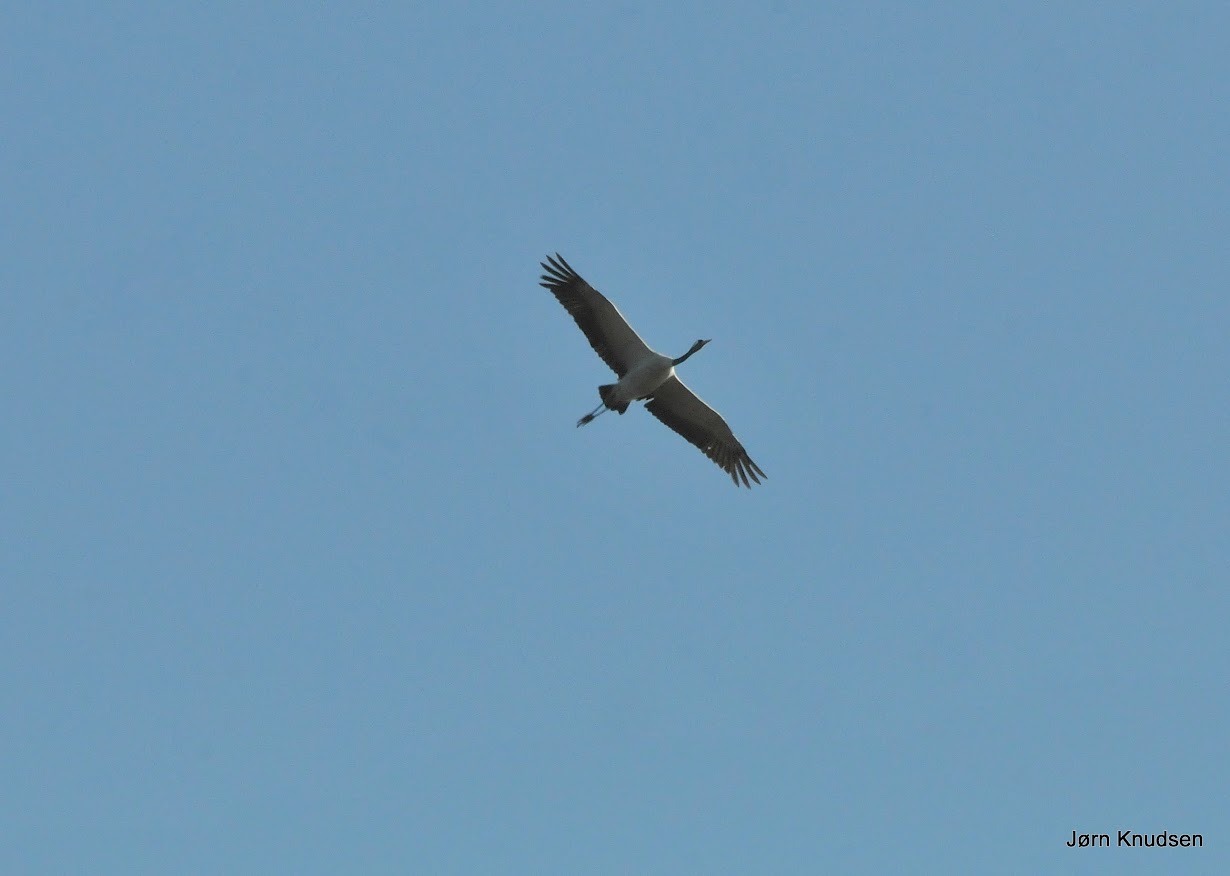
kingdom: Animalia
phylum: Chordata
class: Aves
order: Gruiformes
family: Gruidae
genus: Grus
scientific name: Grus grus
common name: Trane
